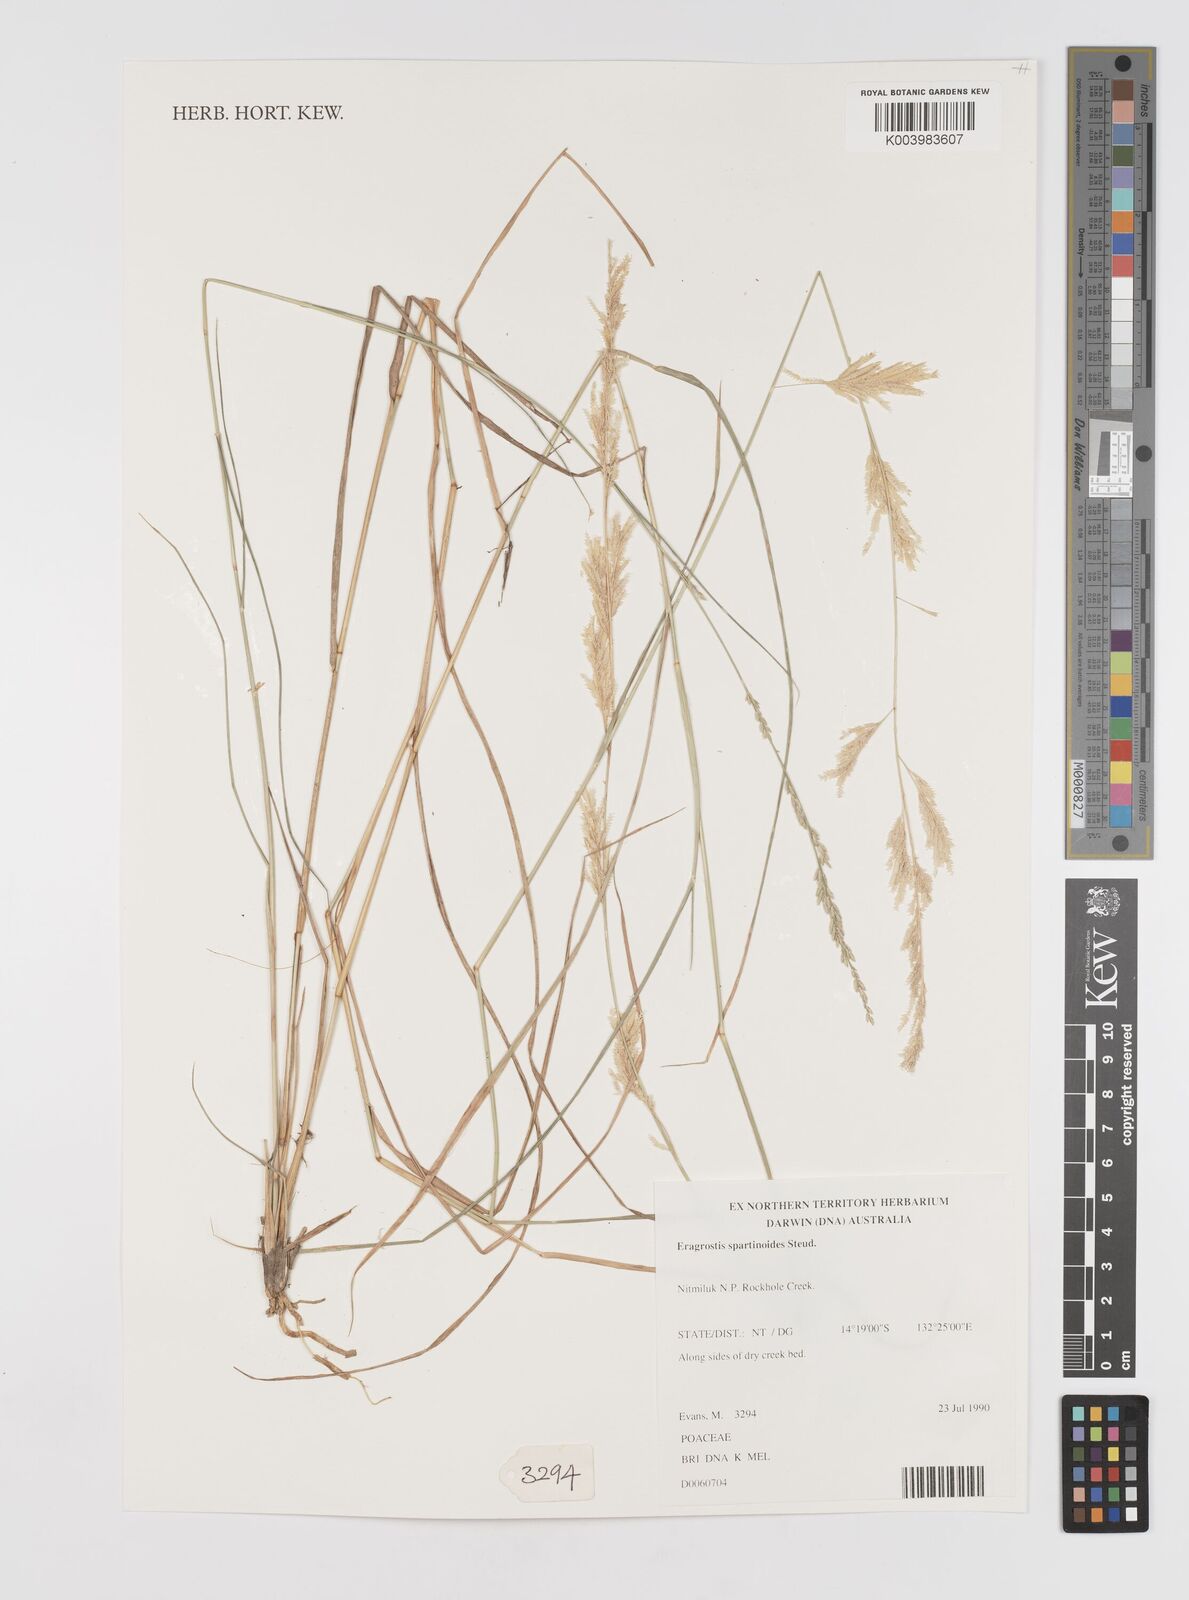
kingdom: Plantae
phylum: Tracheophyta
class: Liliopsida
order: Poales
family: Poaceae
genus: Eragrostis
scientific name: Eragrostis brownii
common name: Lovegrass
